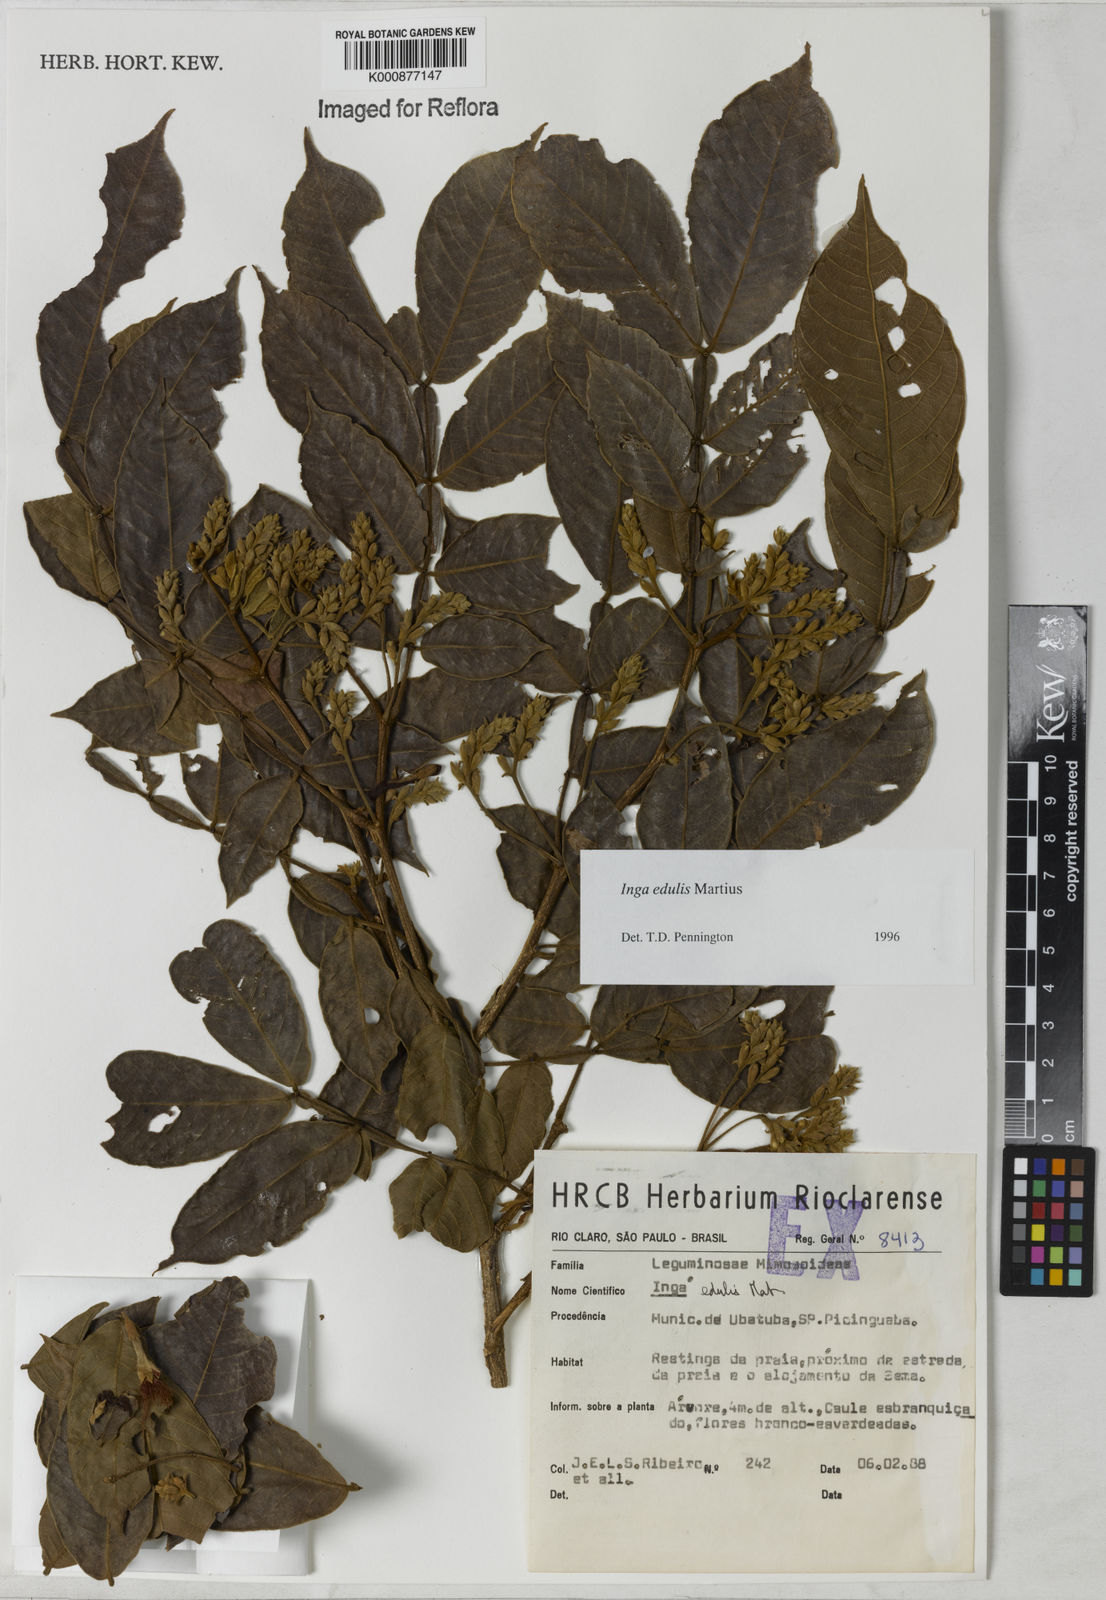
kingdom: Plantae
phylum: Tracheophyta
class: Magnoliopsida
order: Fabales
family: Fabaceae
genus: Inga
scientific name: Inga edulis
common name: Ice cream bean
